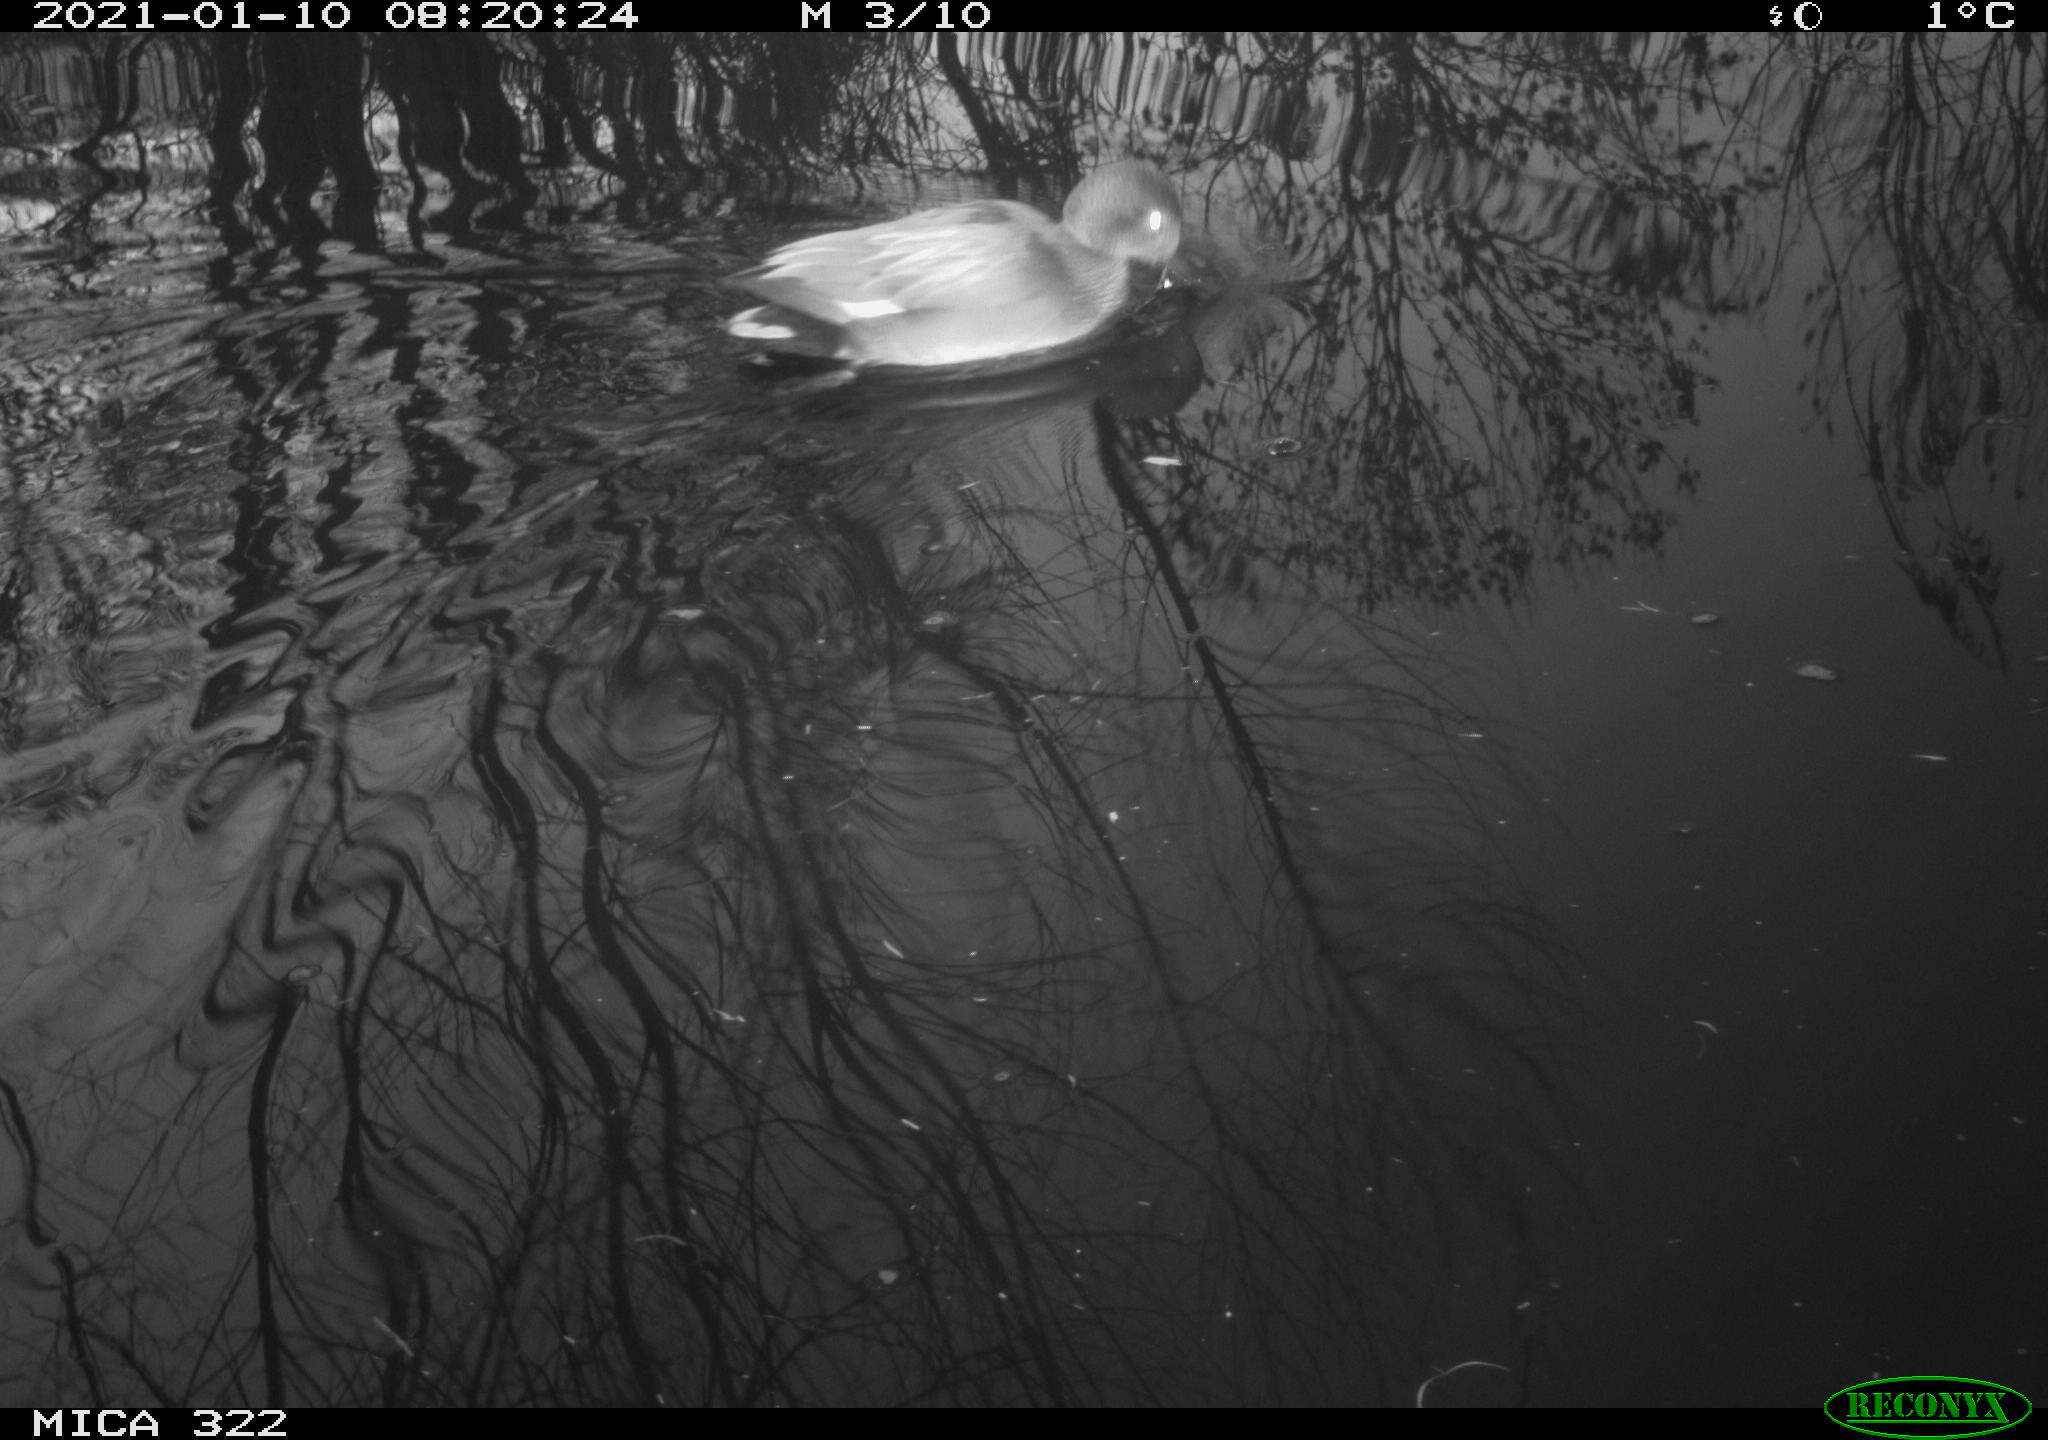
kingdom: Animalia
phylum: Chordata
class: Aves
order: Anseriformes
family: Anatidae
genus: Mareca
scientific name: Mareca strepera
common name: Gadwall
